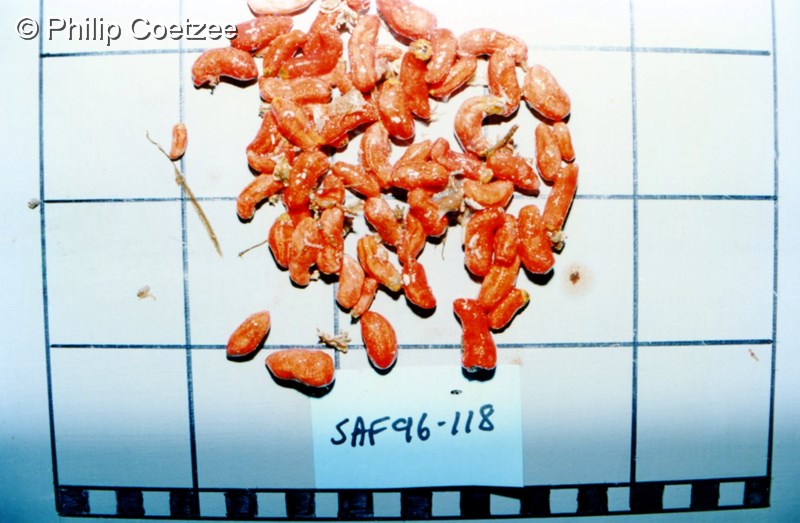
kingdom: Animalia
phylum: Echinodermata
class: Holothuroidea
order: Dendrochirotida
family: Cucumariidae
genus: Hemiocnus
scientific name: Hemiocnus insolens
